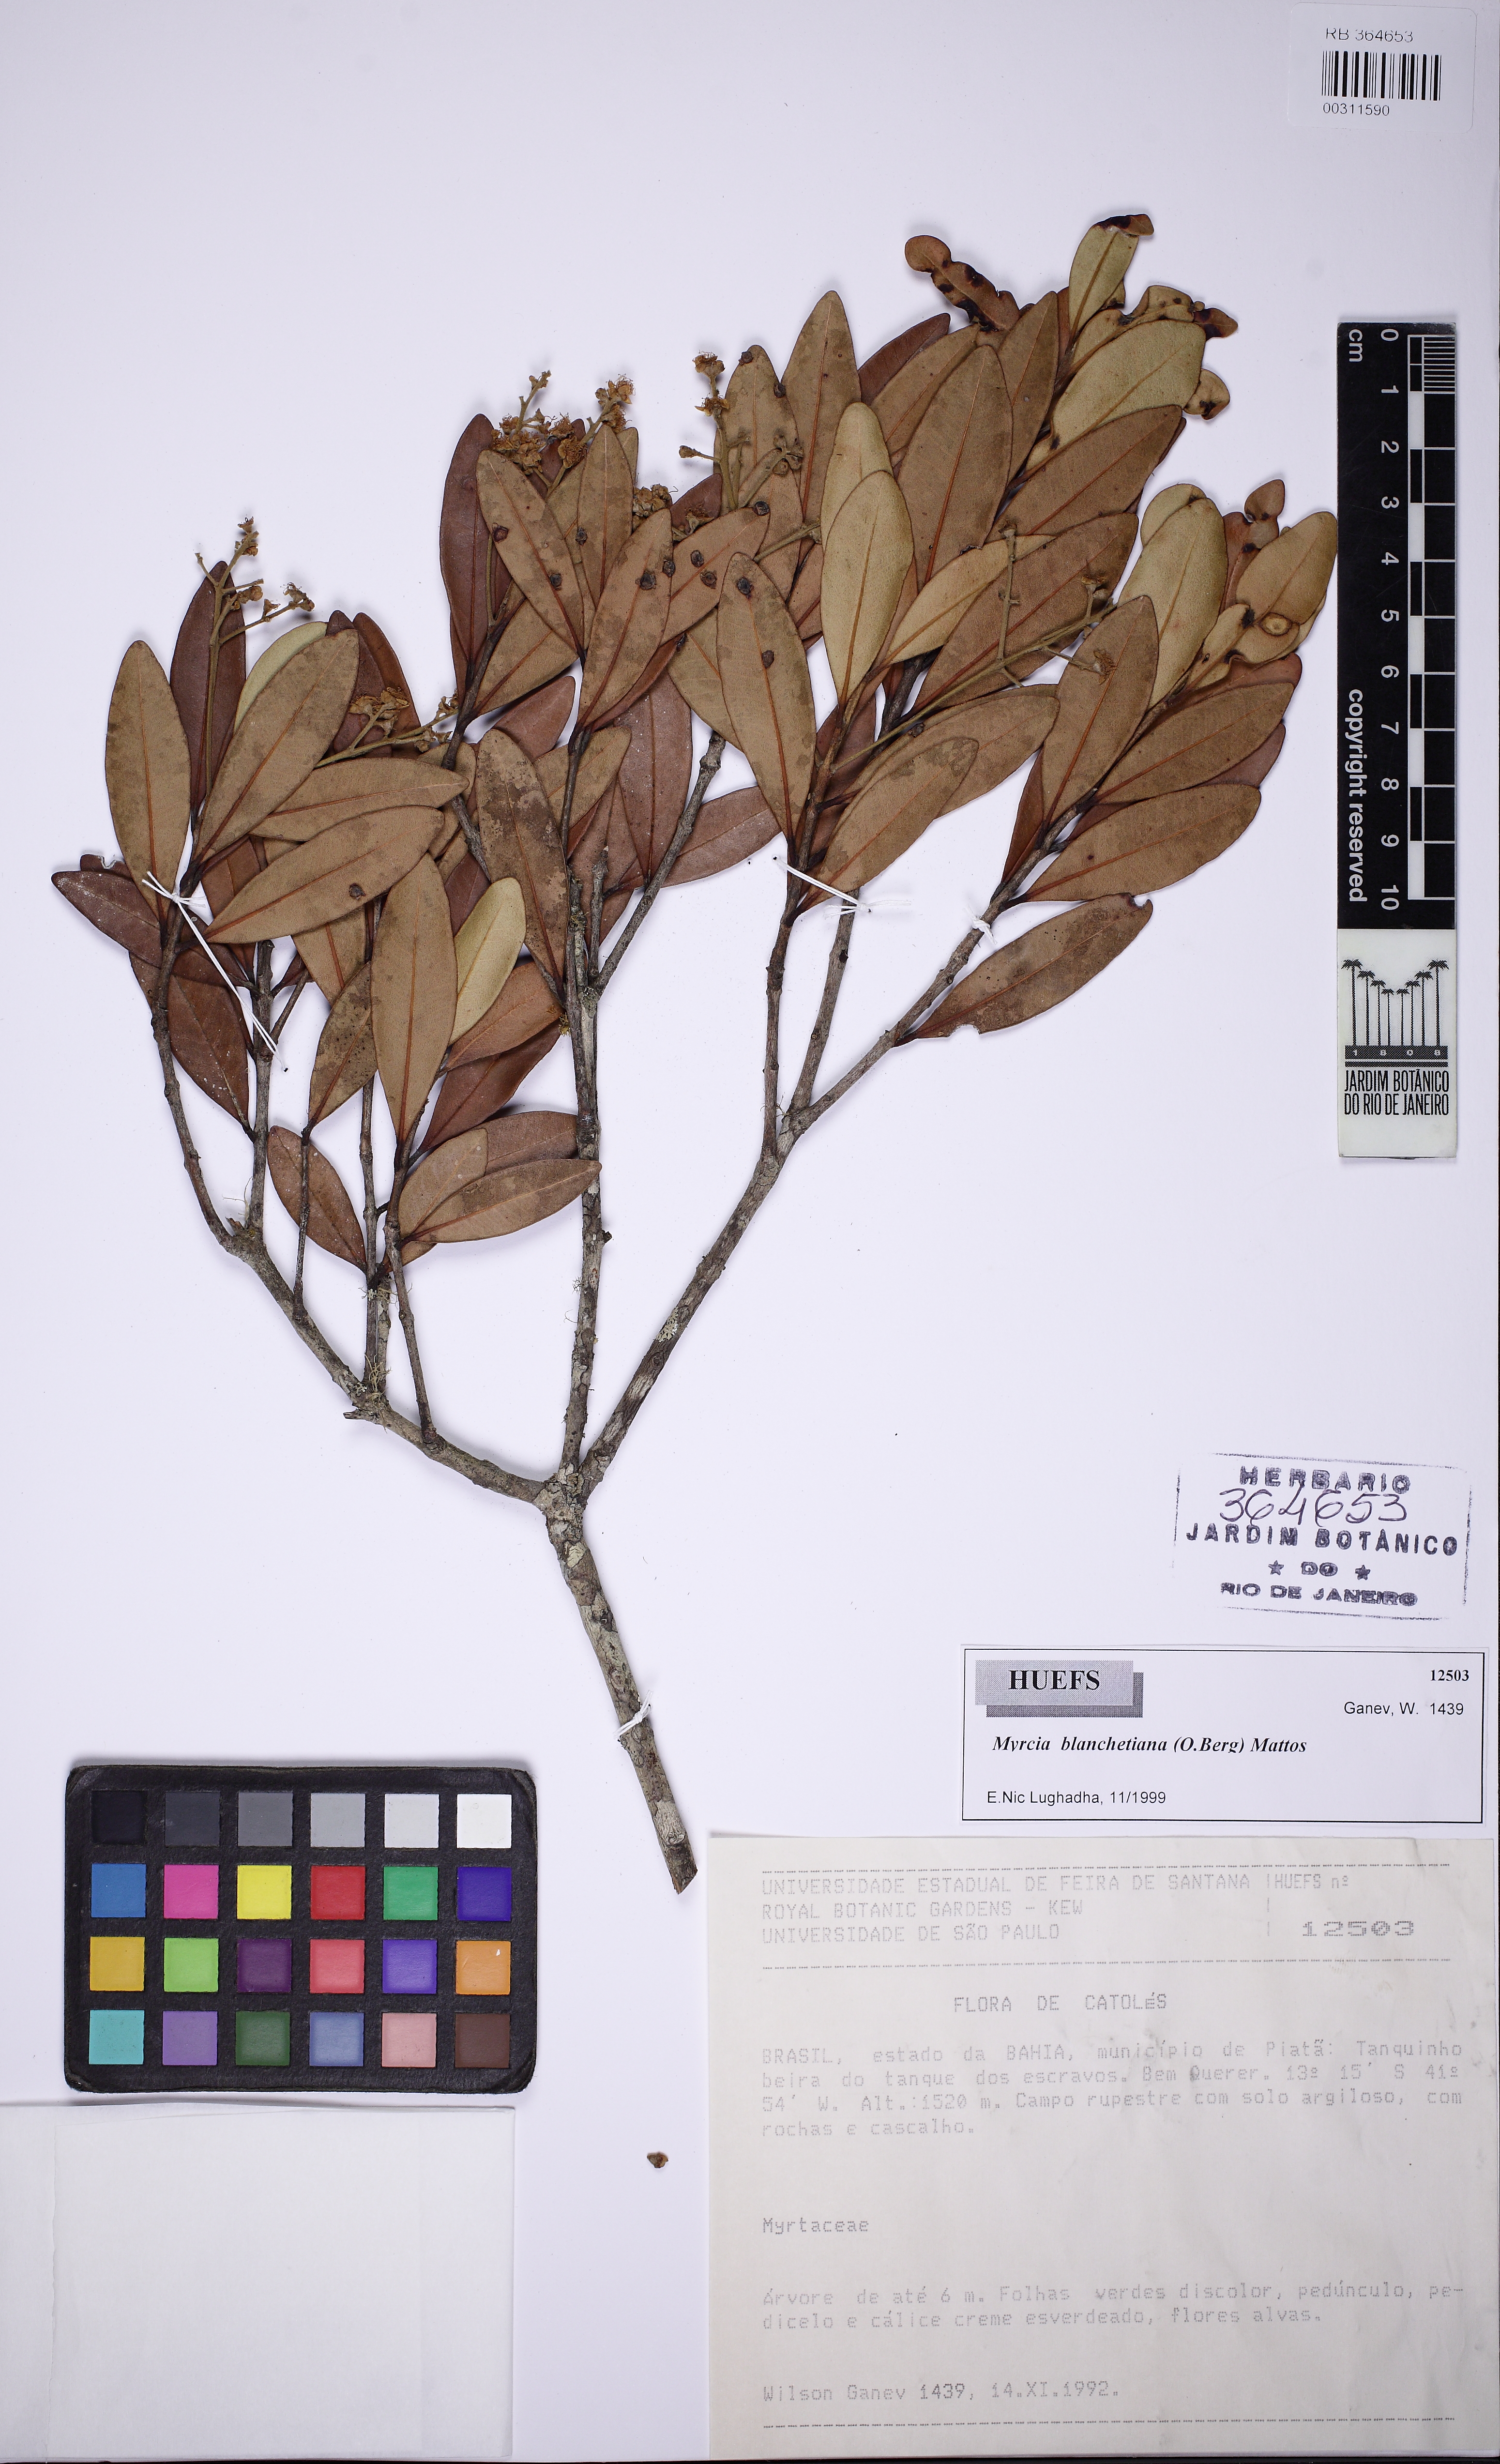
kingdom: Plantae
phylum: Tracheophyta
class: Magnoliopsida
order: Myrtales
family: Myrtaceae
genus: Myrcia
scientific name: Myrcia blanchetiana
